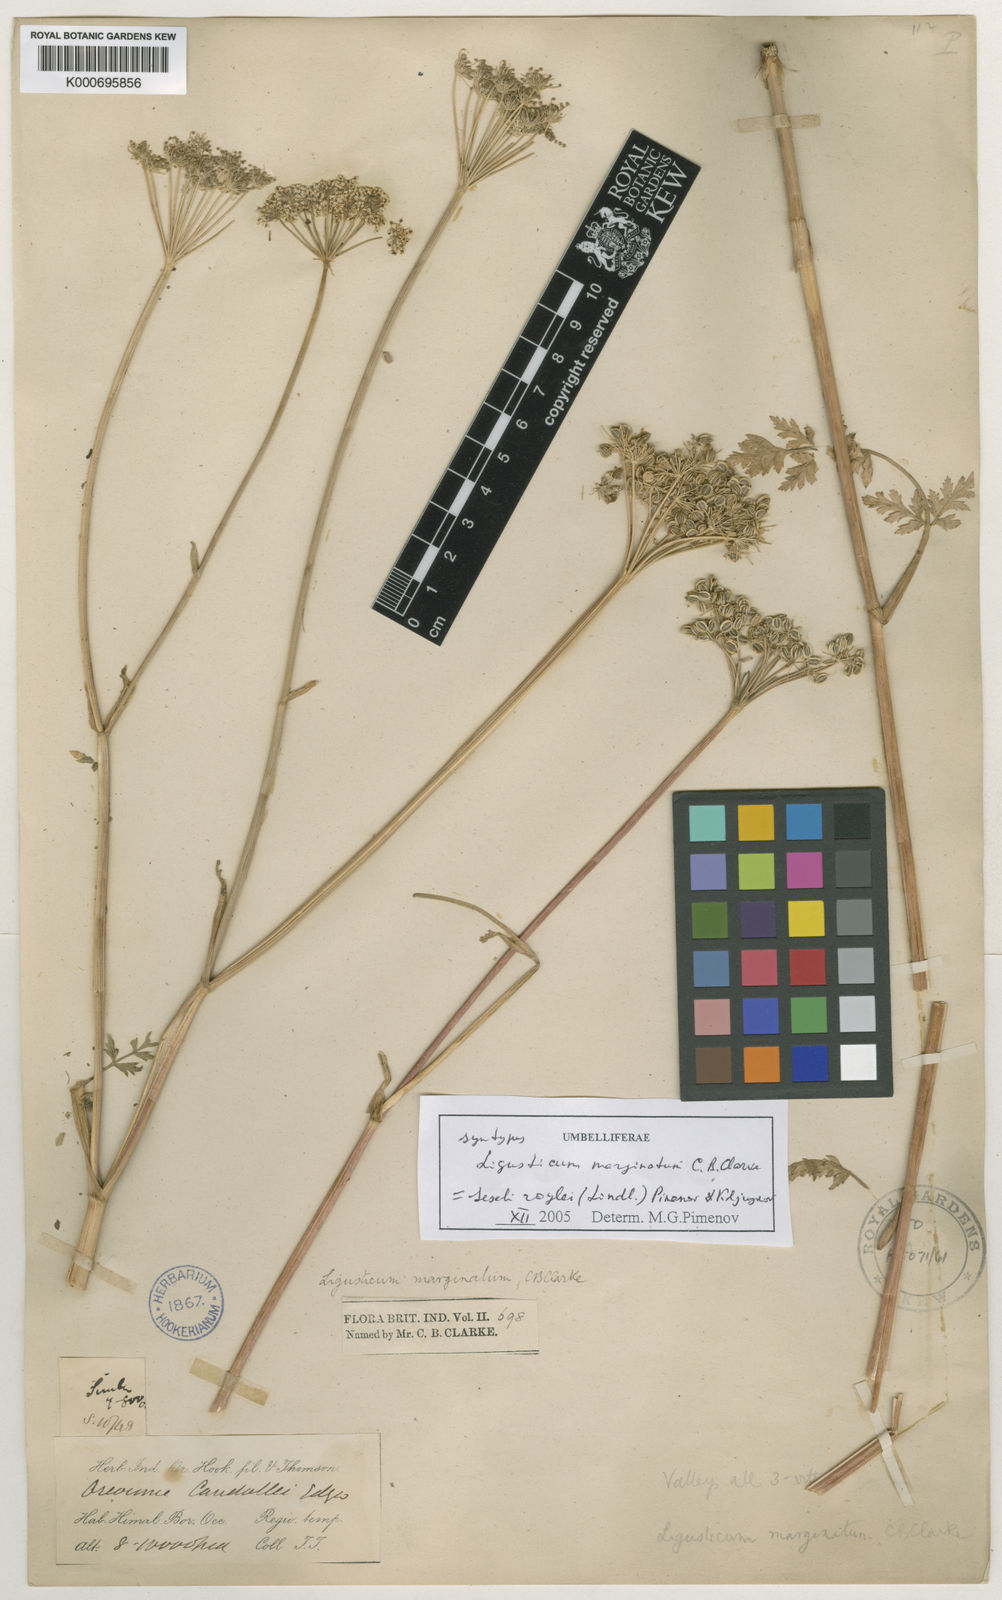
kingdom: Plantae
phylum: Tracheophyta
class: Magnoliopsida
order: Apiales
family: Apiaceae
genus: Seseli
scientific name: Seseli roylei
